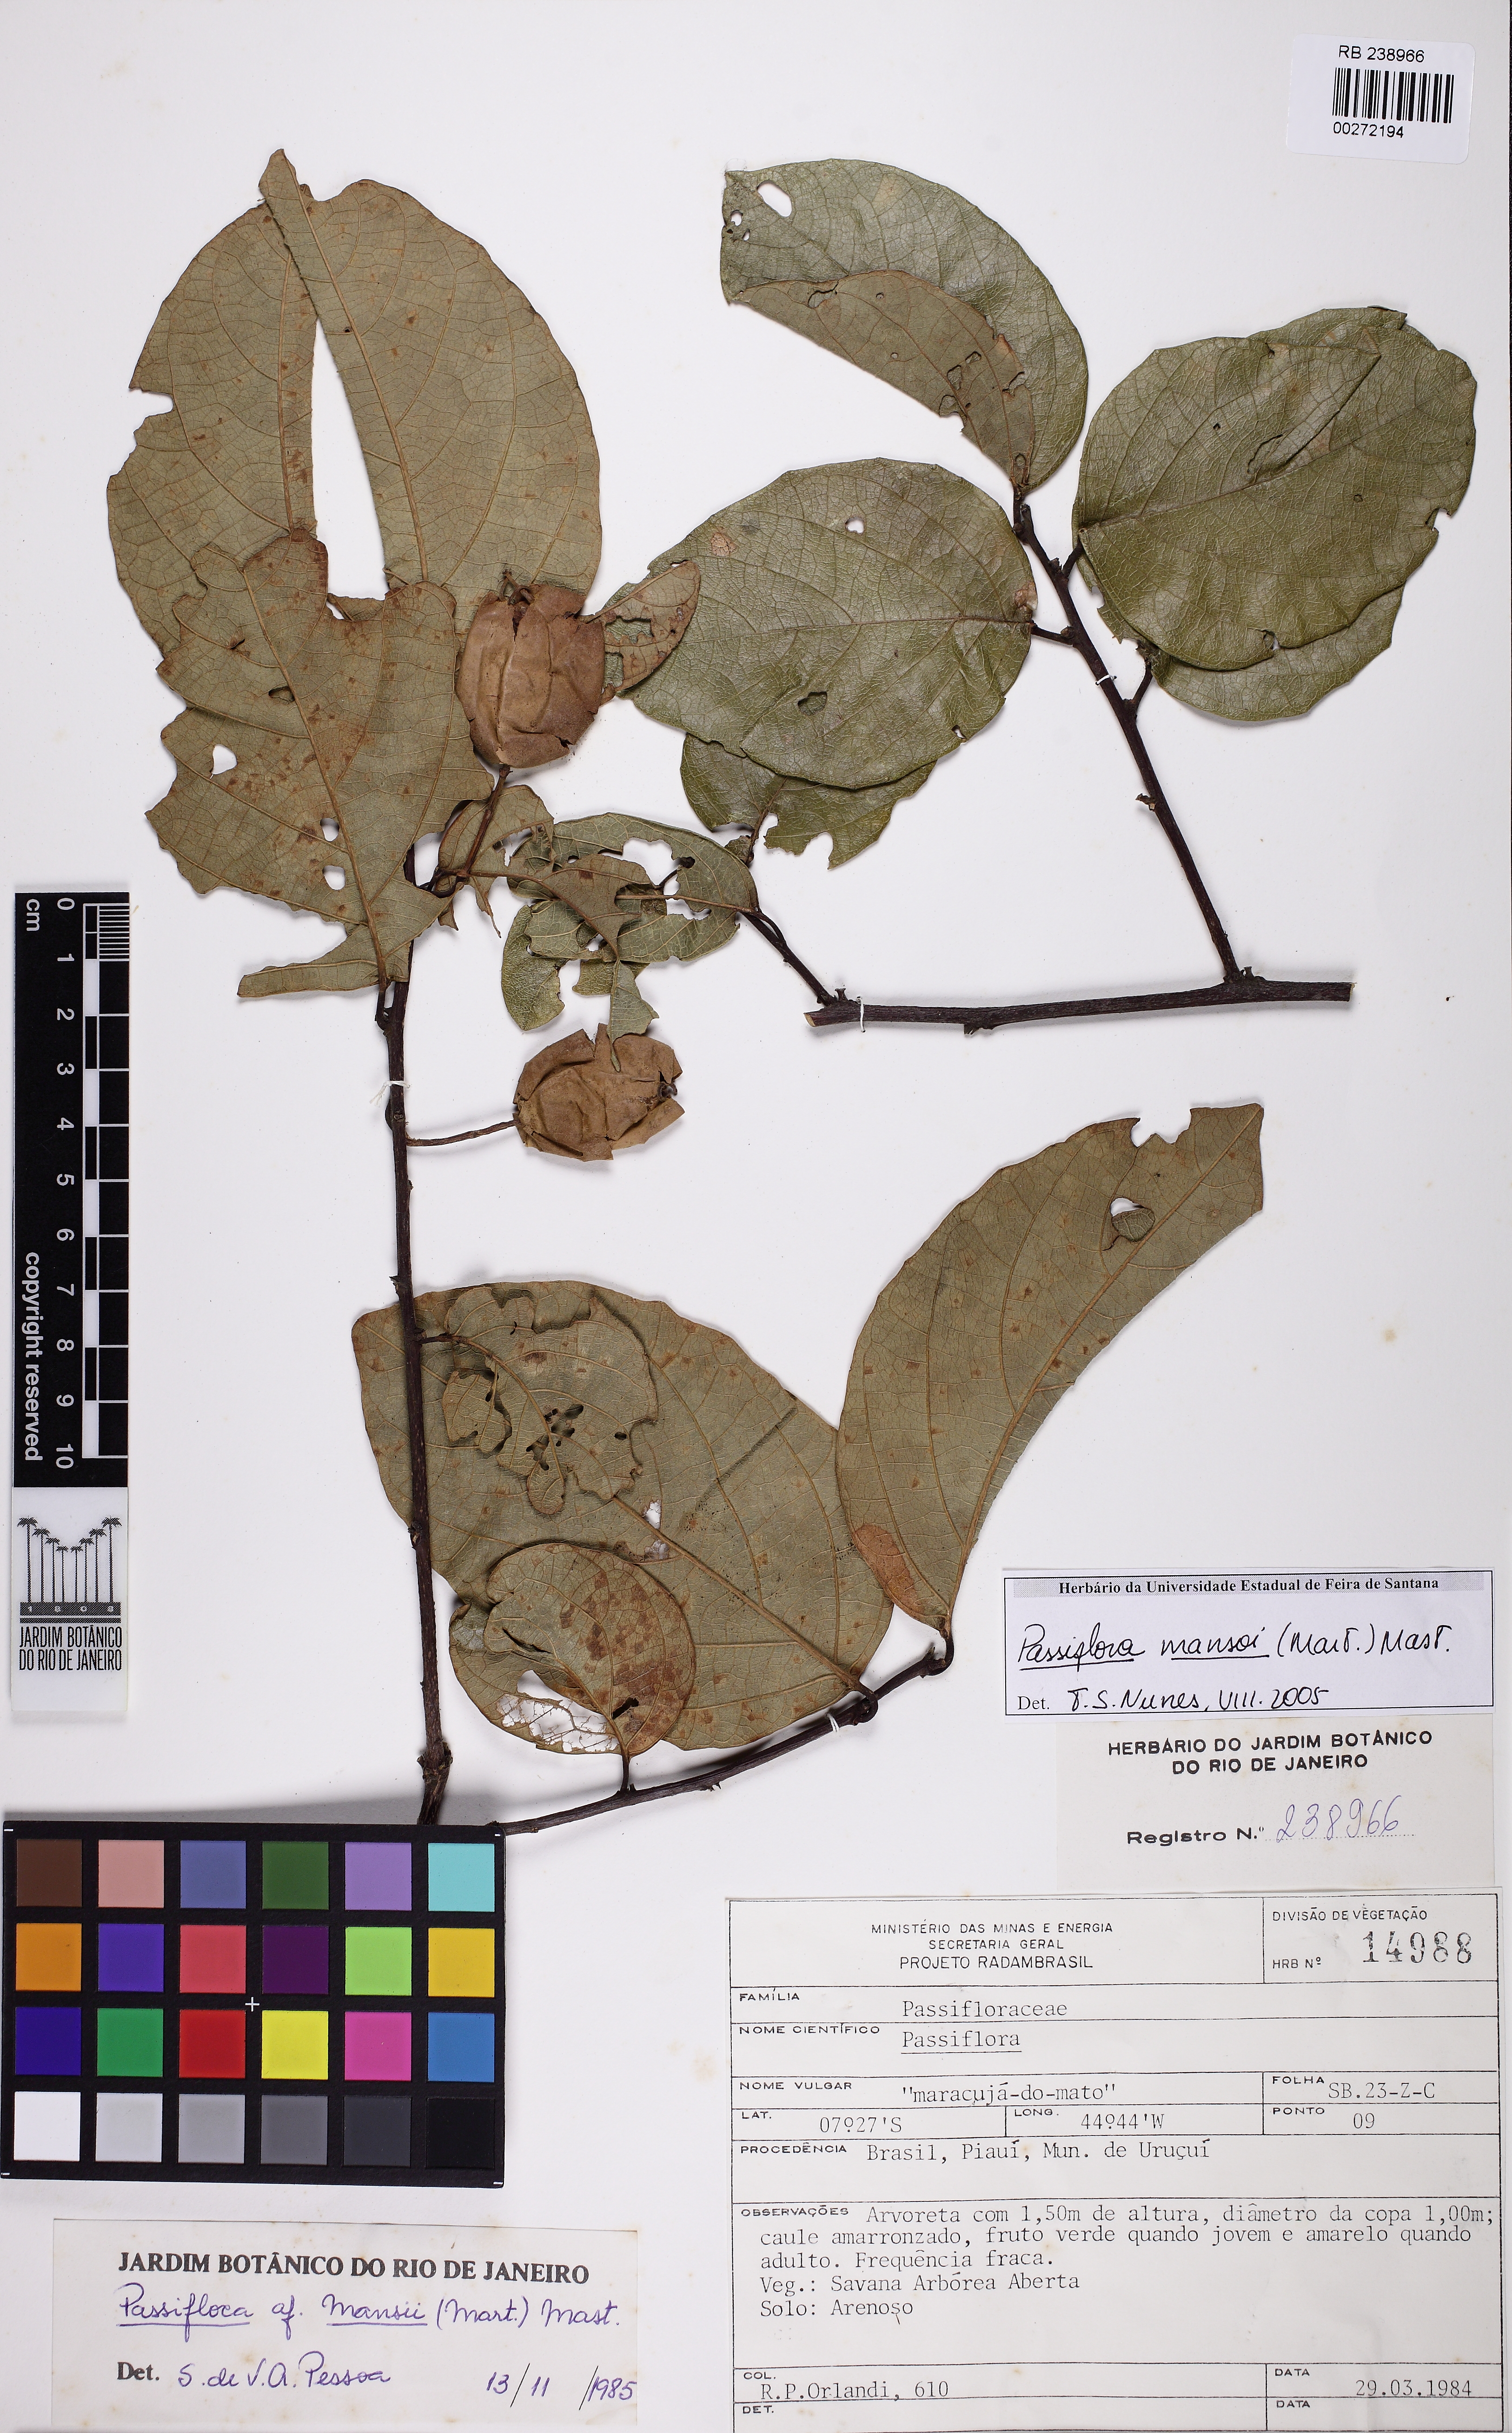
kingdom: Plantae
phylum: Tracheophyta
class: Magnoliopsida
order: Malpighiales
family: Passifloraceae
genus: Passiflora
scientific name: Passiflora mansoi
